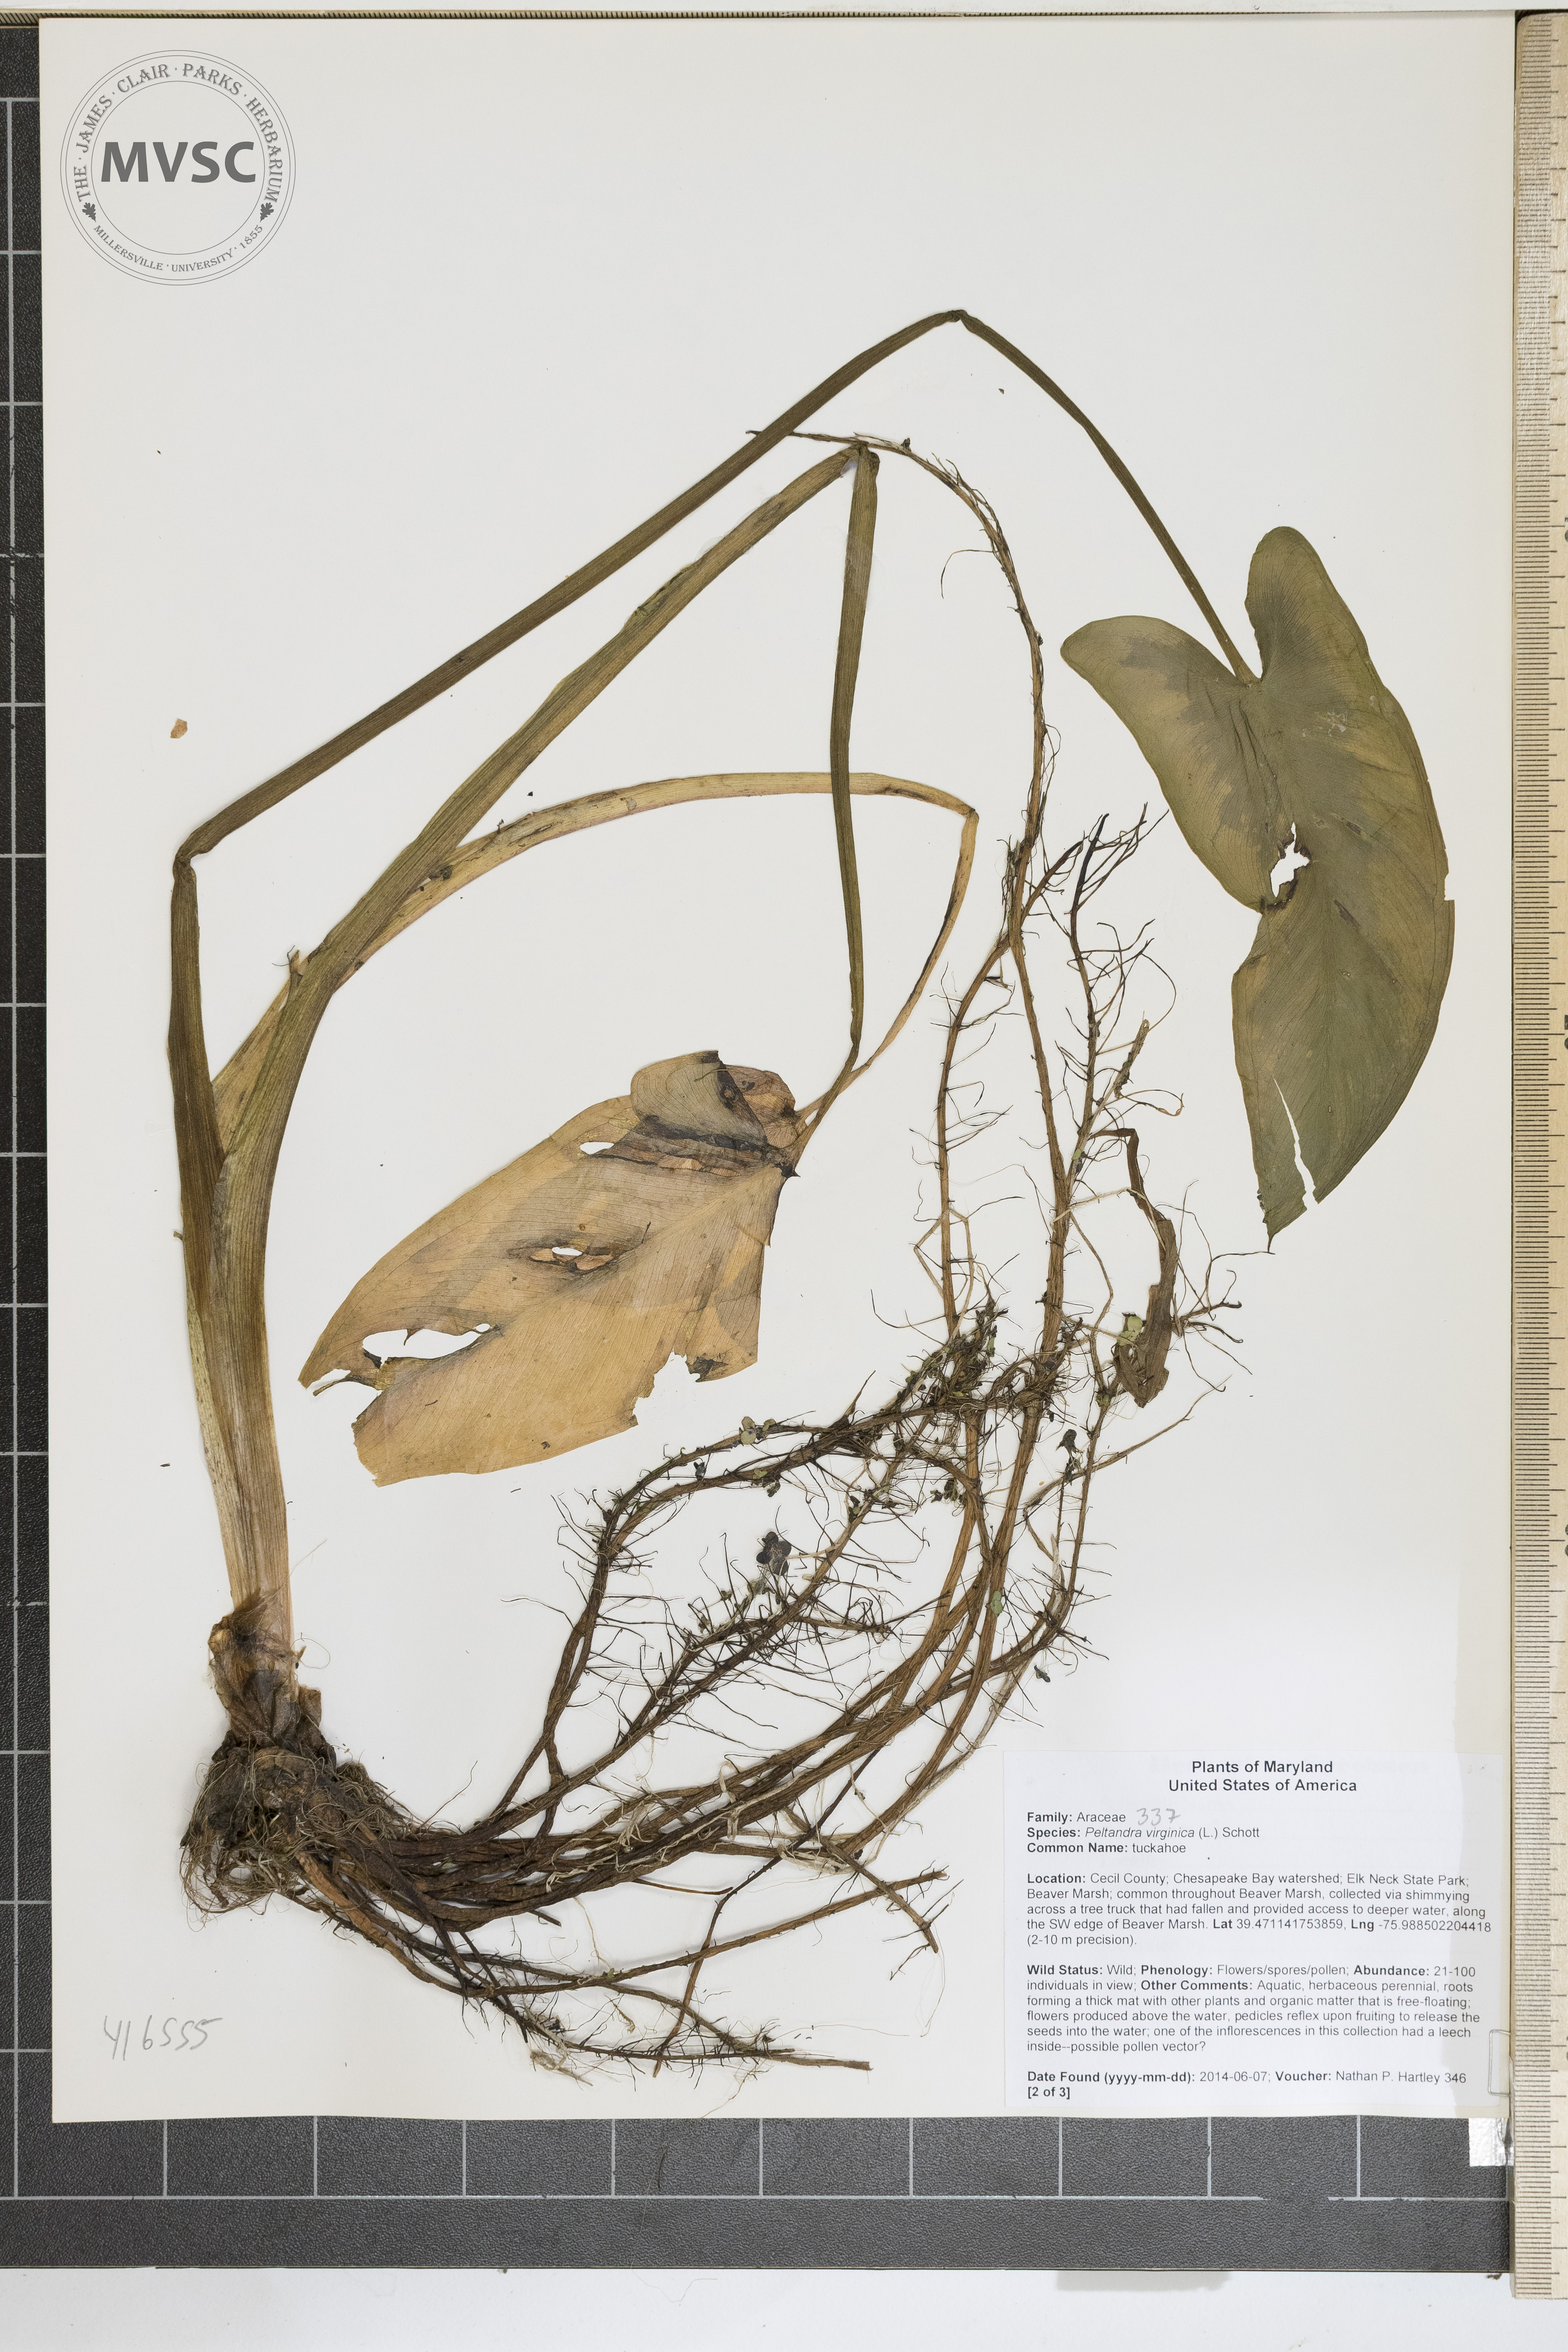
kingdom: Plantae
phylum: Tracheophyta
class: Liliopsida
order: Alismatales
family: Araceae
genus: Peltandra
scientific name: Peltandra virginica
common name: tuckahoe
